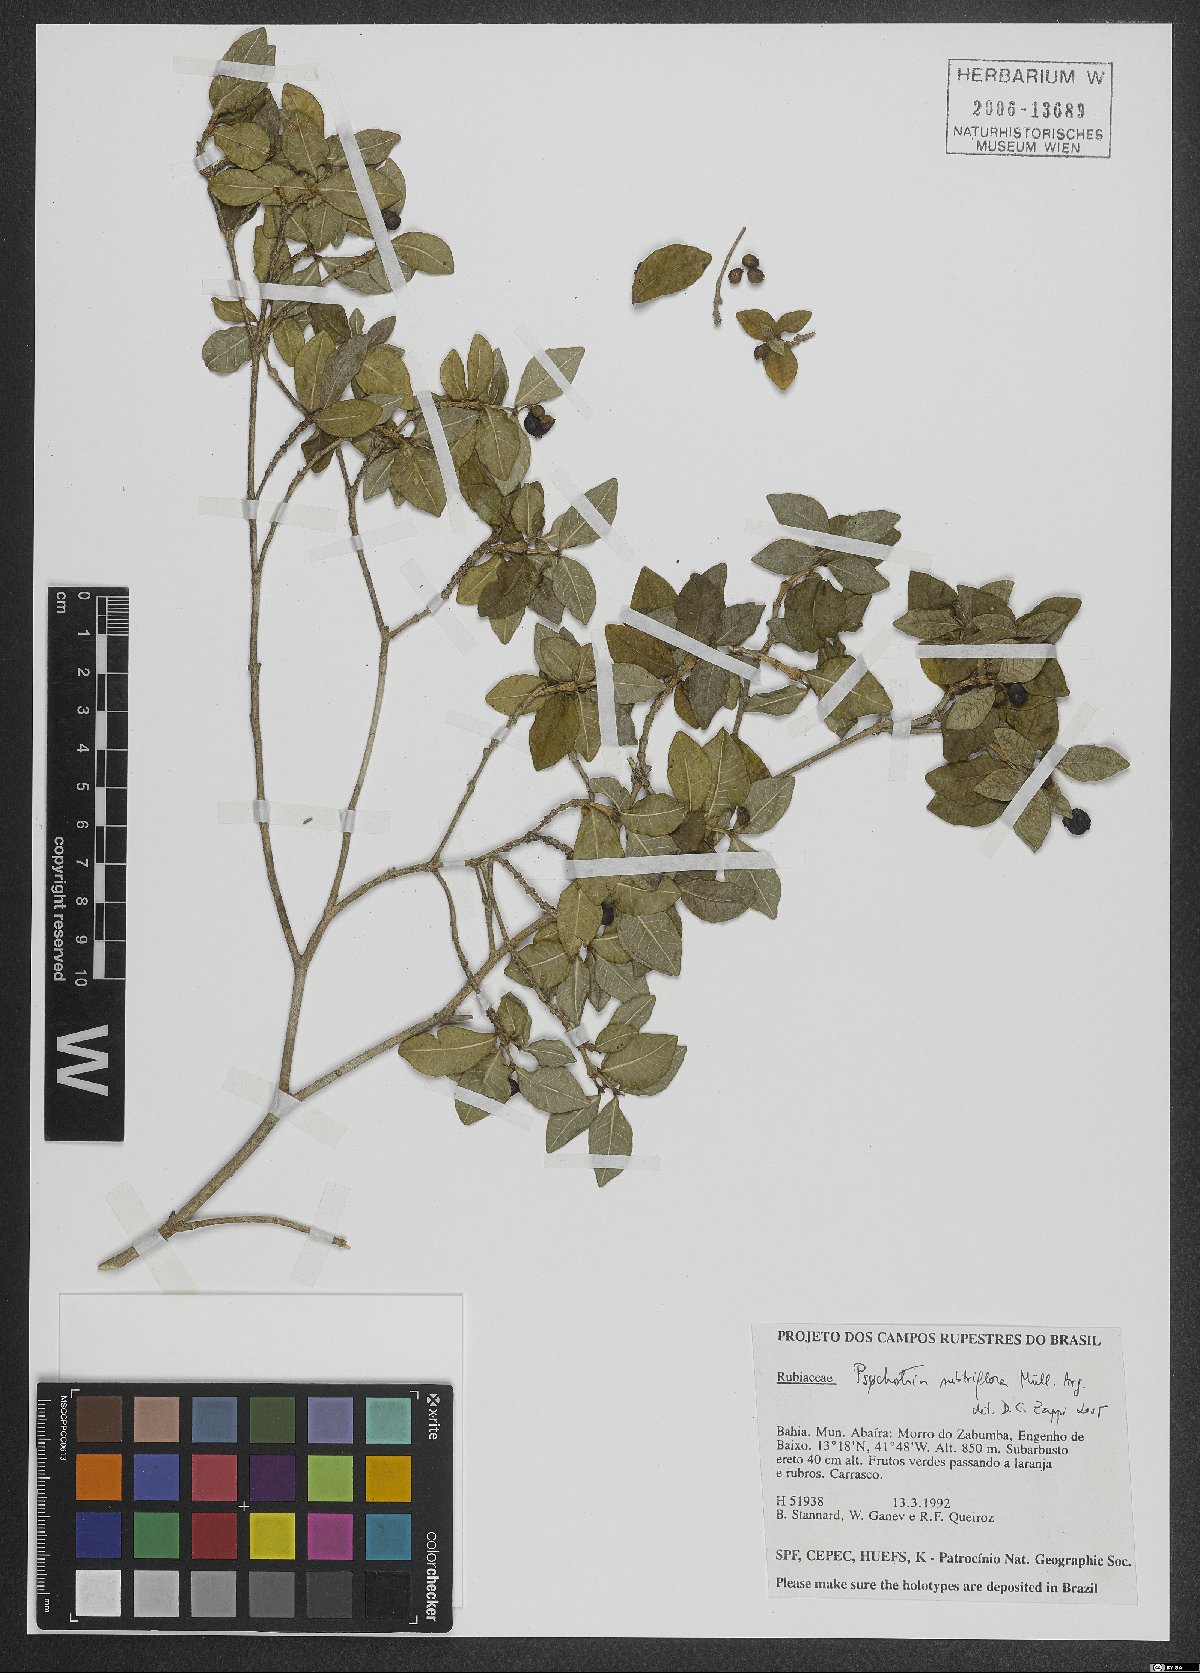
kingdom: Plantae
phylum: Tracheophyta
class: Magnoliopsida
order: Gentianales
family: Rubiaceae
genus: Psychotria
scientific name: Psychotria subtriflora
